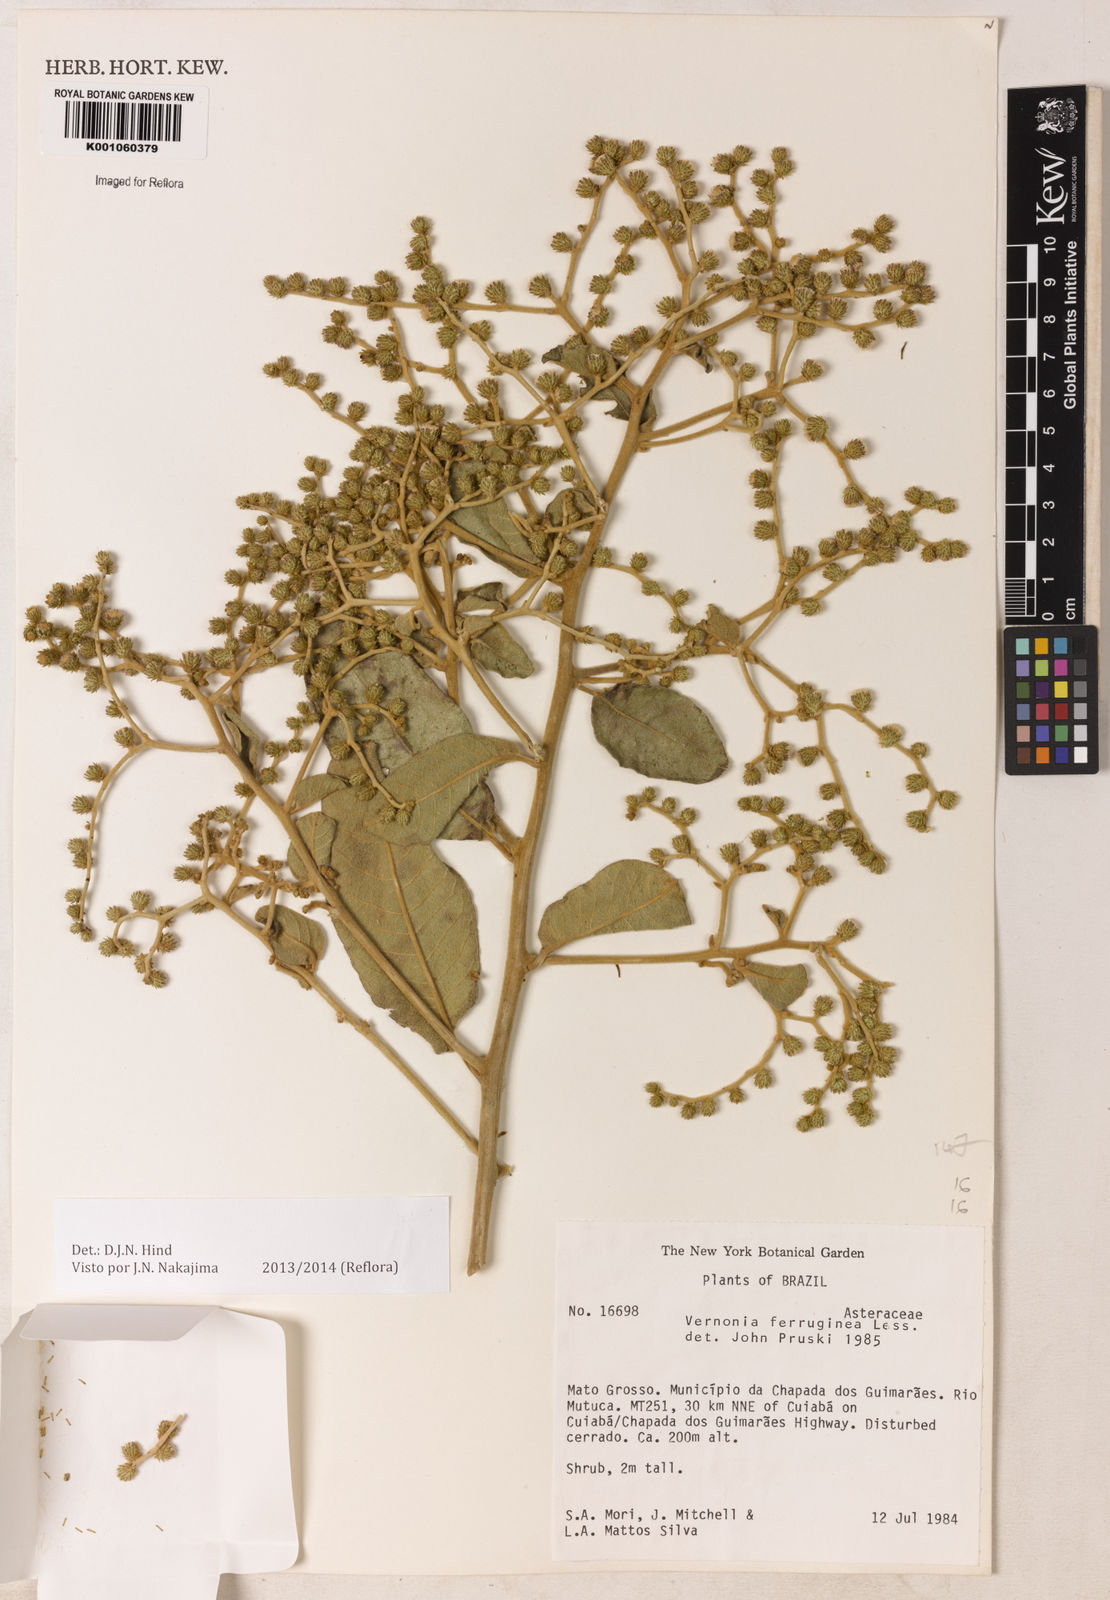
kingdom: Plantae
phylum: Tracheophyta
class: Magnoliopsida
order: Asterales
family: Asteraceae
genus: Vernonanthura
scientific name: Vernonanthura ferruginea
